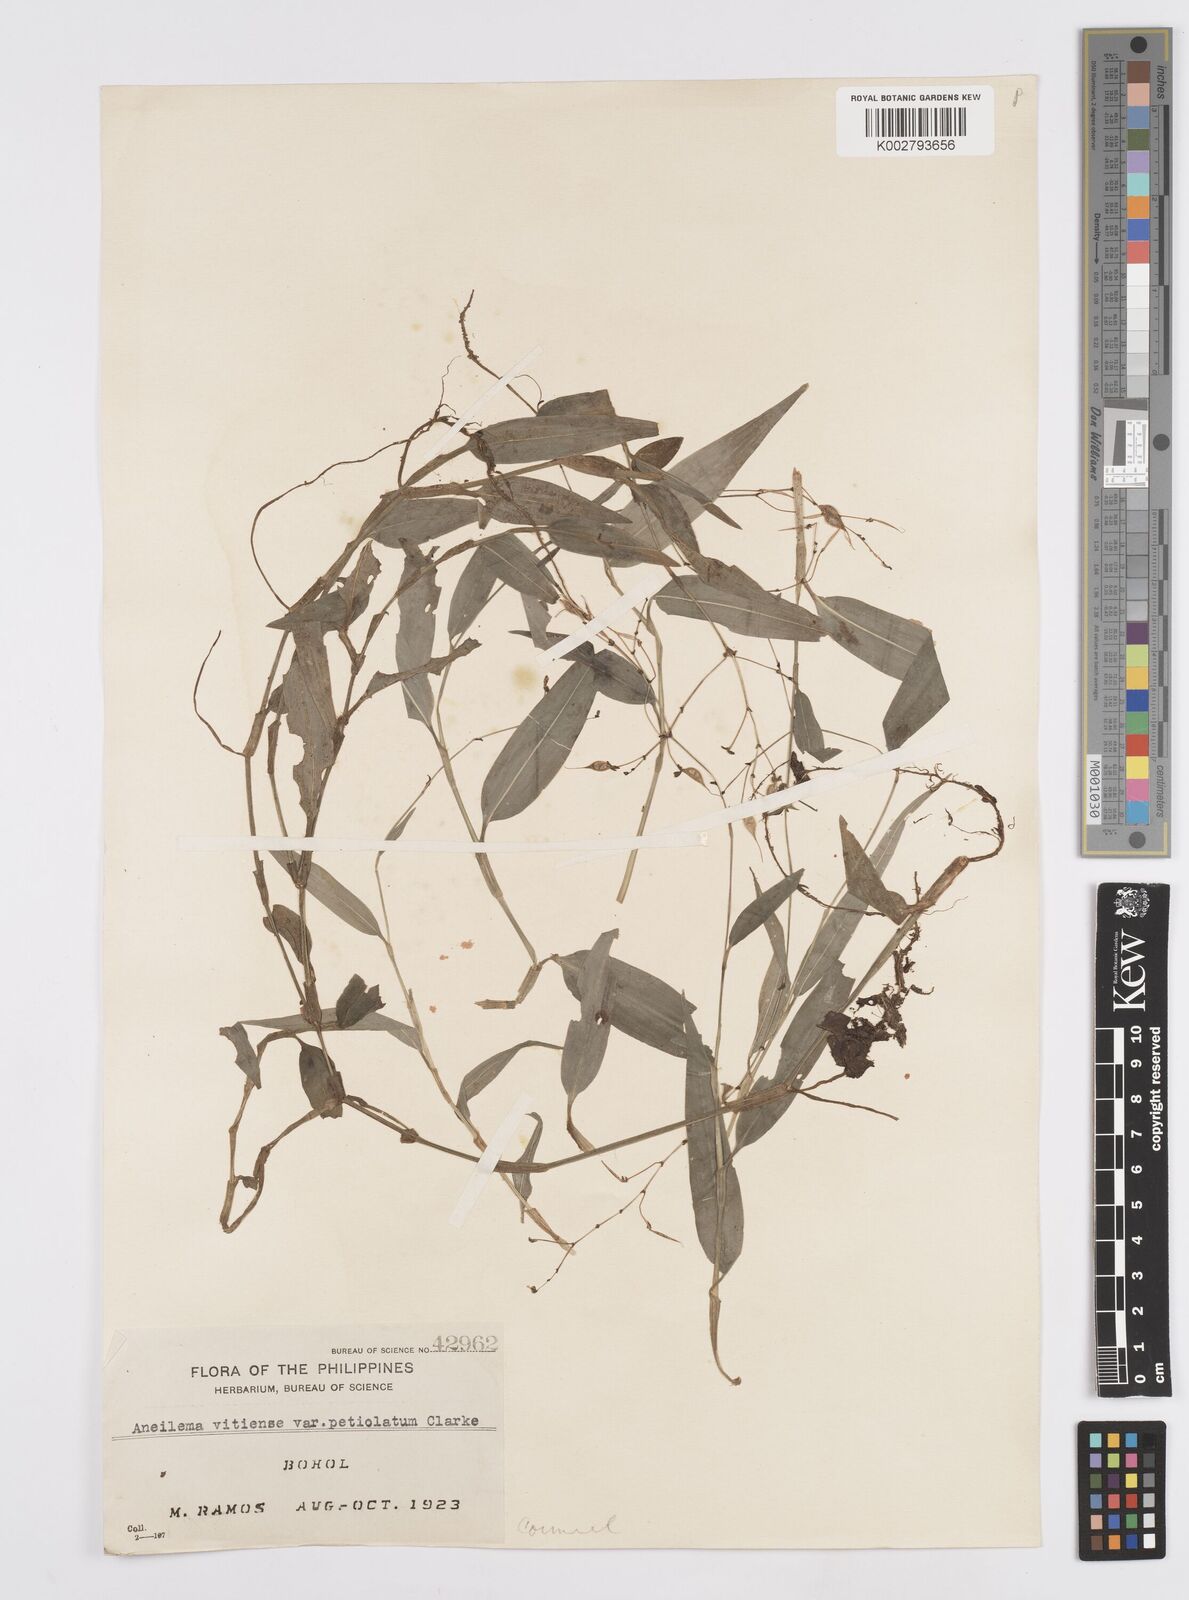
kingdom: Plantae
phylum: Tracheophyta
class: Liliopsida
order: Commelinales
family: Commelinaceae
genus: Murdannia
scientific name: Murdannia
